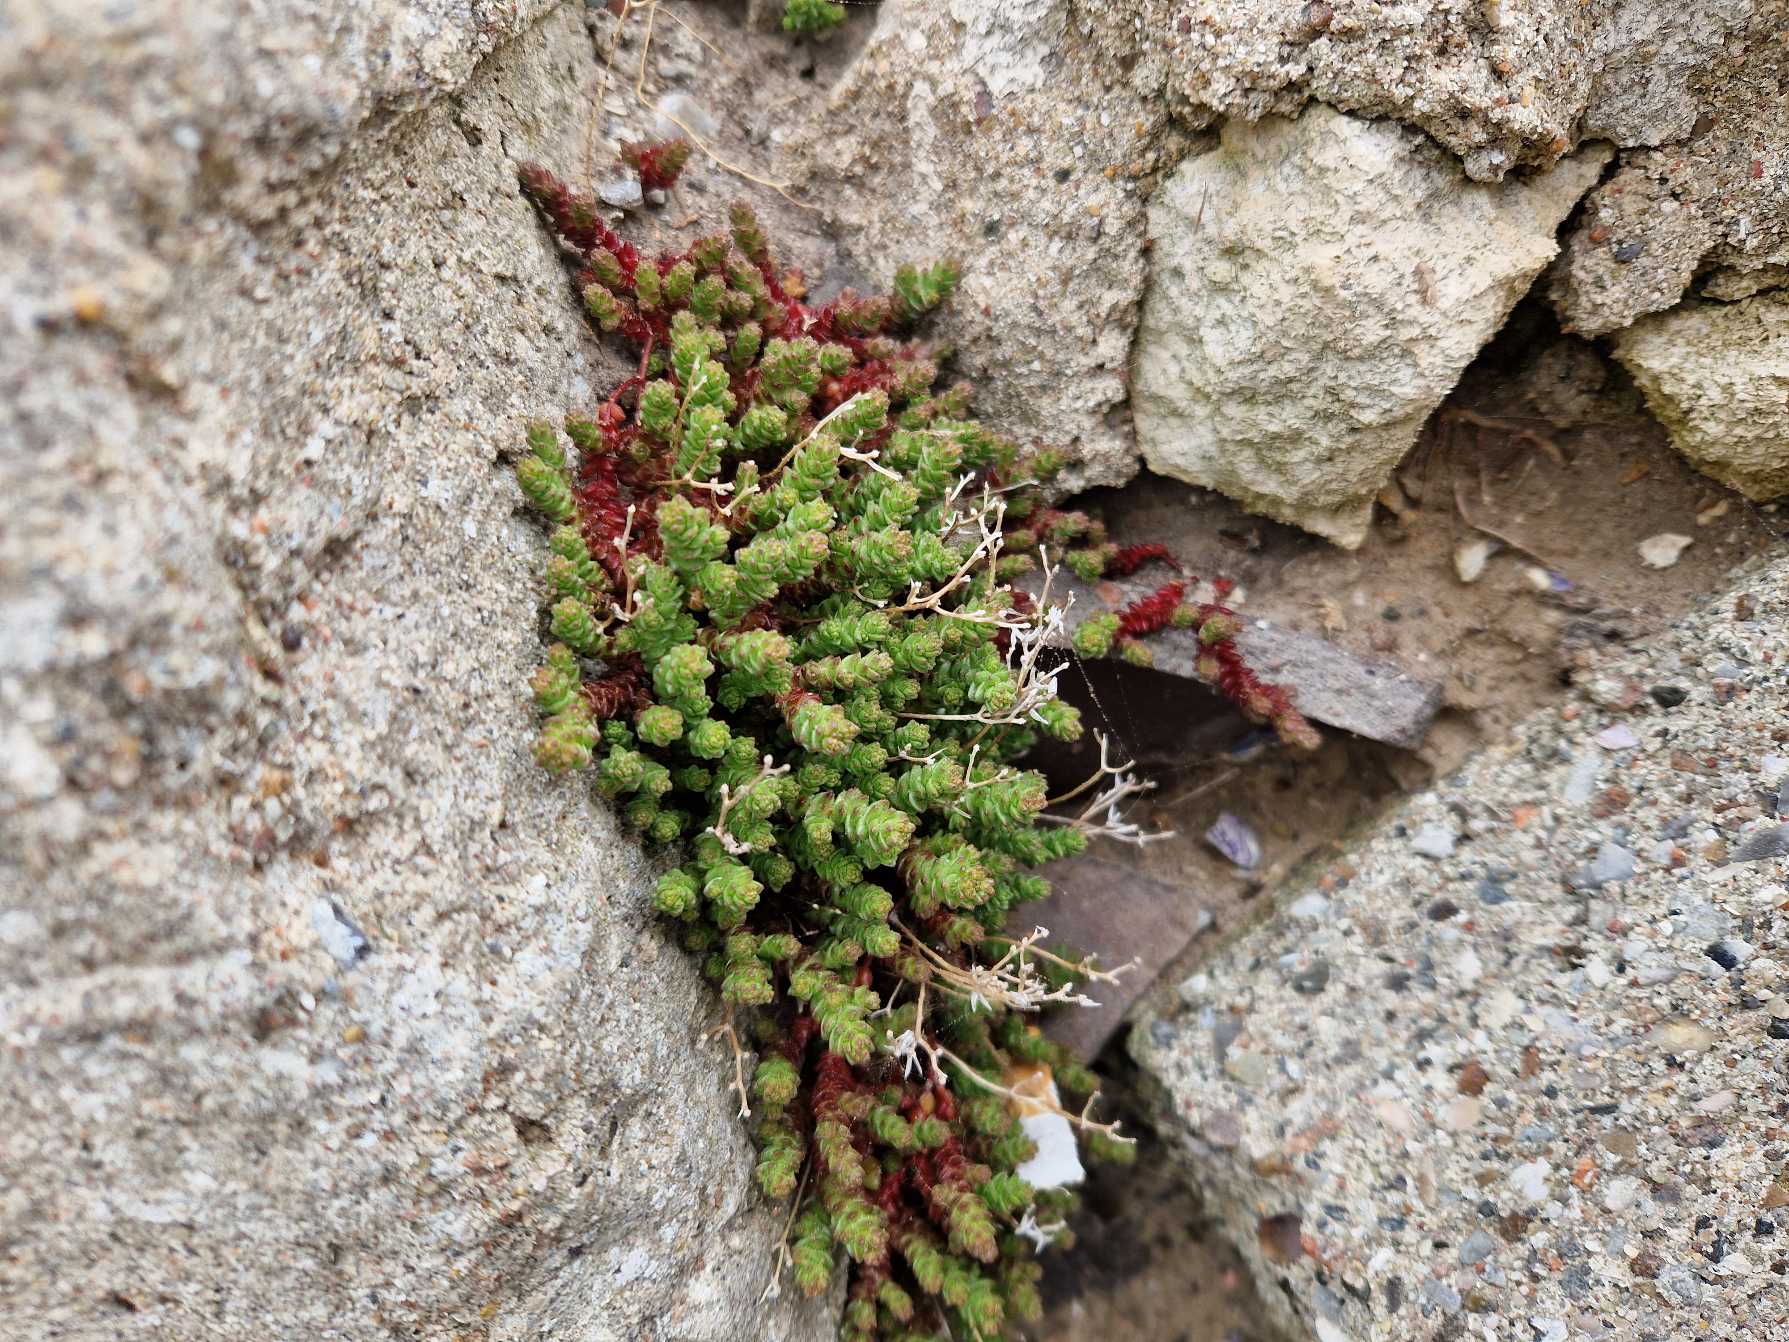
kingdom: Plantae
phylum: Tracheophyta
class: Magnoliopsida
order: Saxifragales
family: Crassulaceae
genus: Sedum
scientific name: Sedum acre
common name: Bidende stenurt
